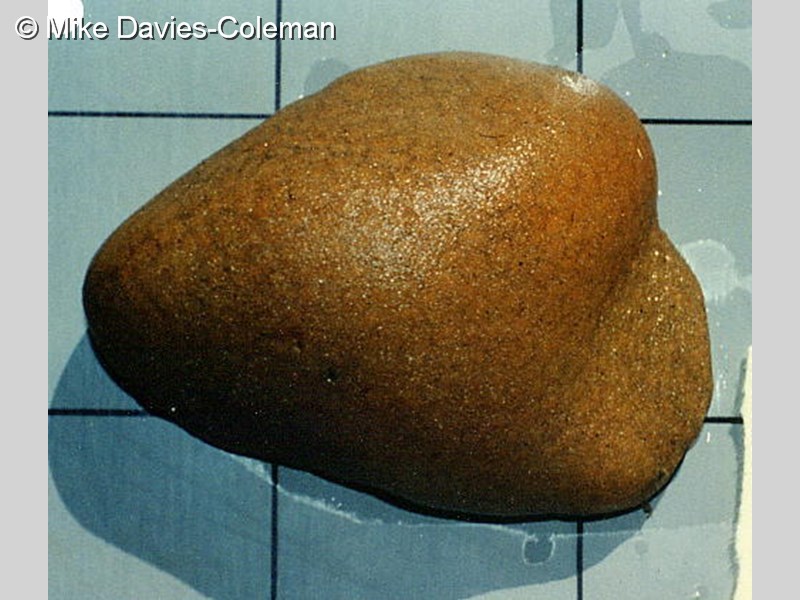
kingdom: Animalia
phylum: Chordata
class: Ascidiacea
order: Aplousobranchia
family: Polyclinidae
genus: Polyclinum
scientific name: Polyclinum
